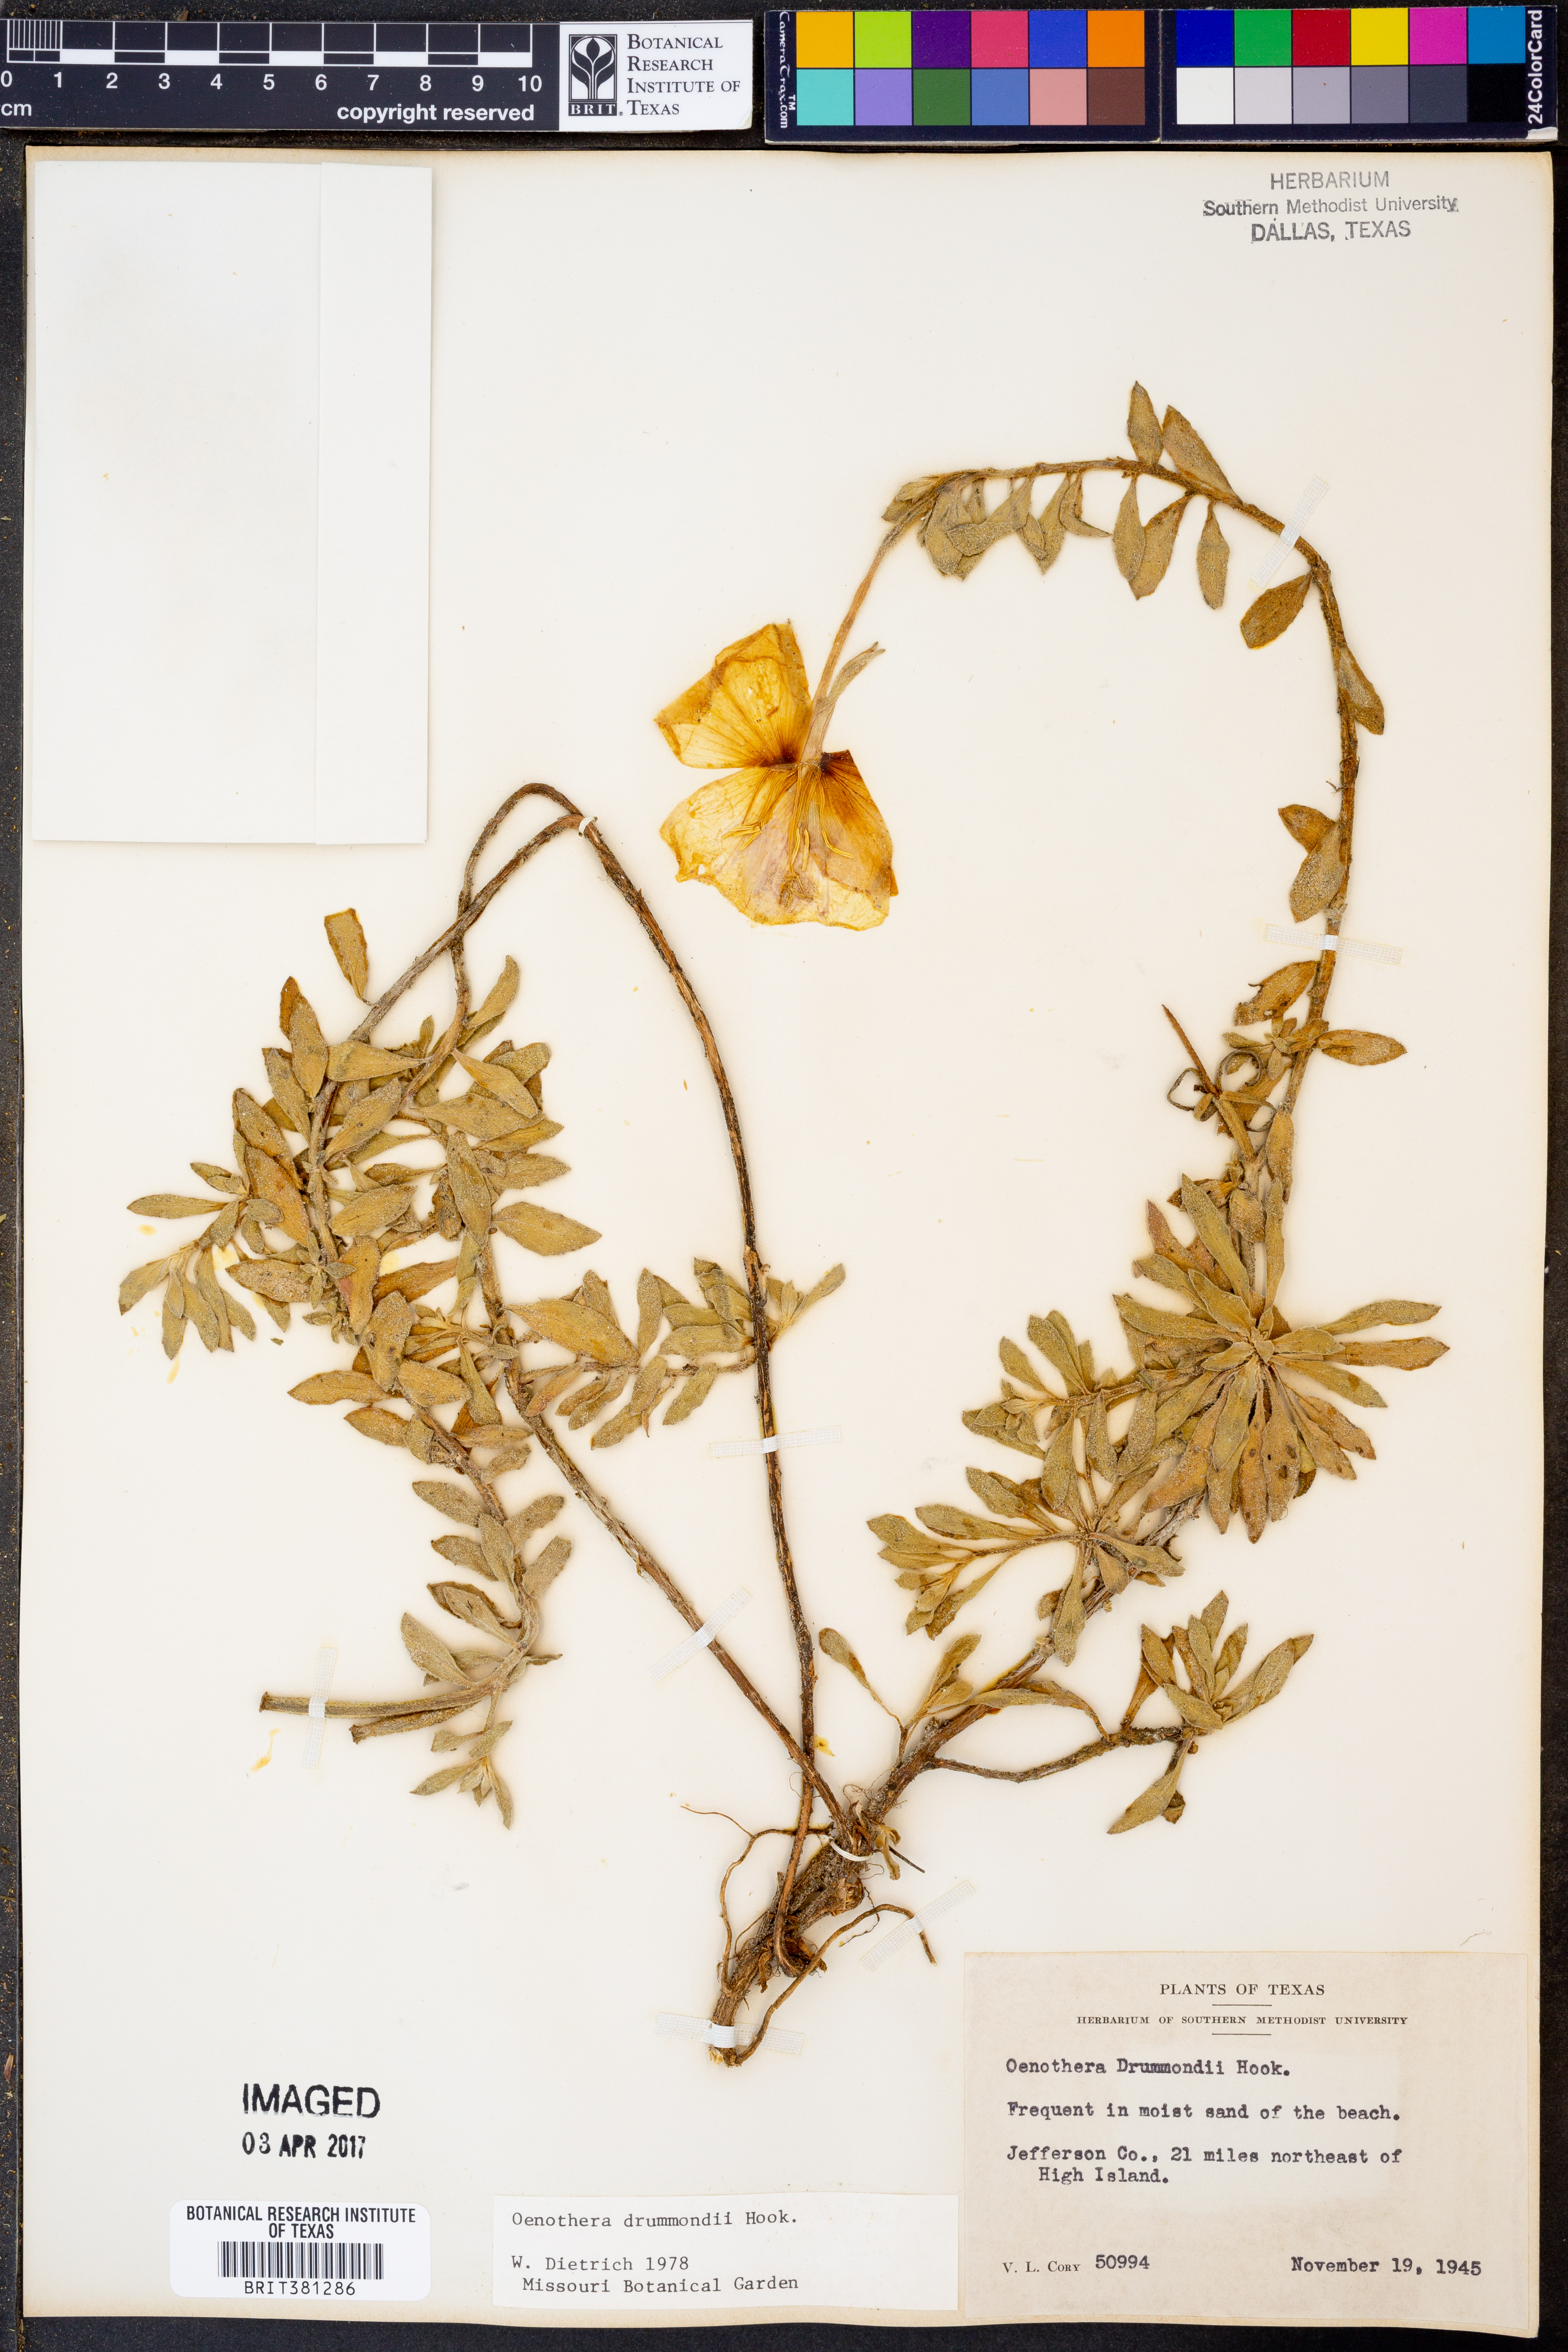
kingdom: Plantae
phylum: Tracheophyta
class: Magnoliopsida
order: Myrtales
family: Onagraceae
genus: Oenothera
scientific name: Oenothera drummondii
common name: Beach evening-primrose
